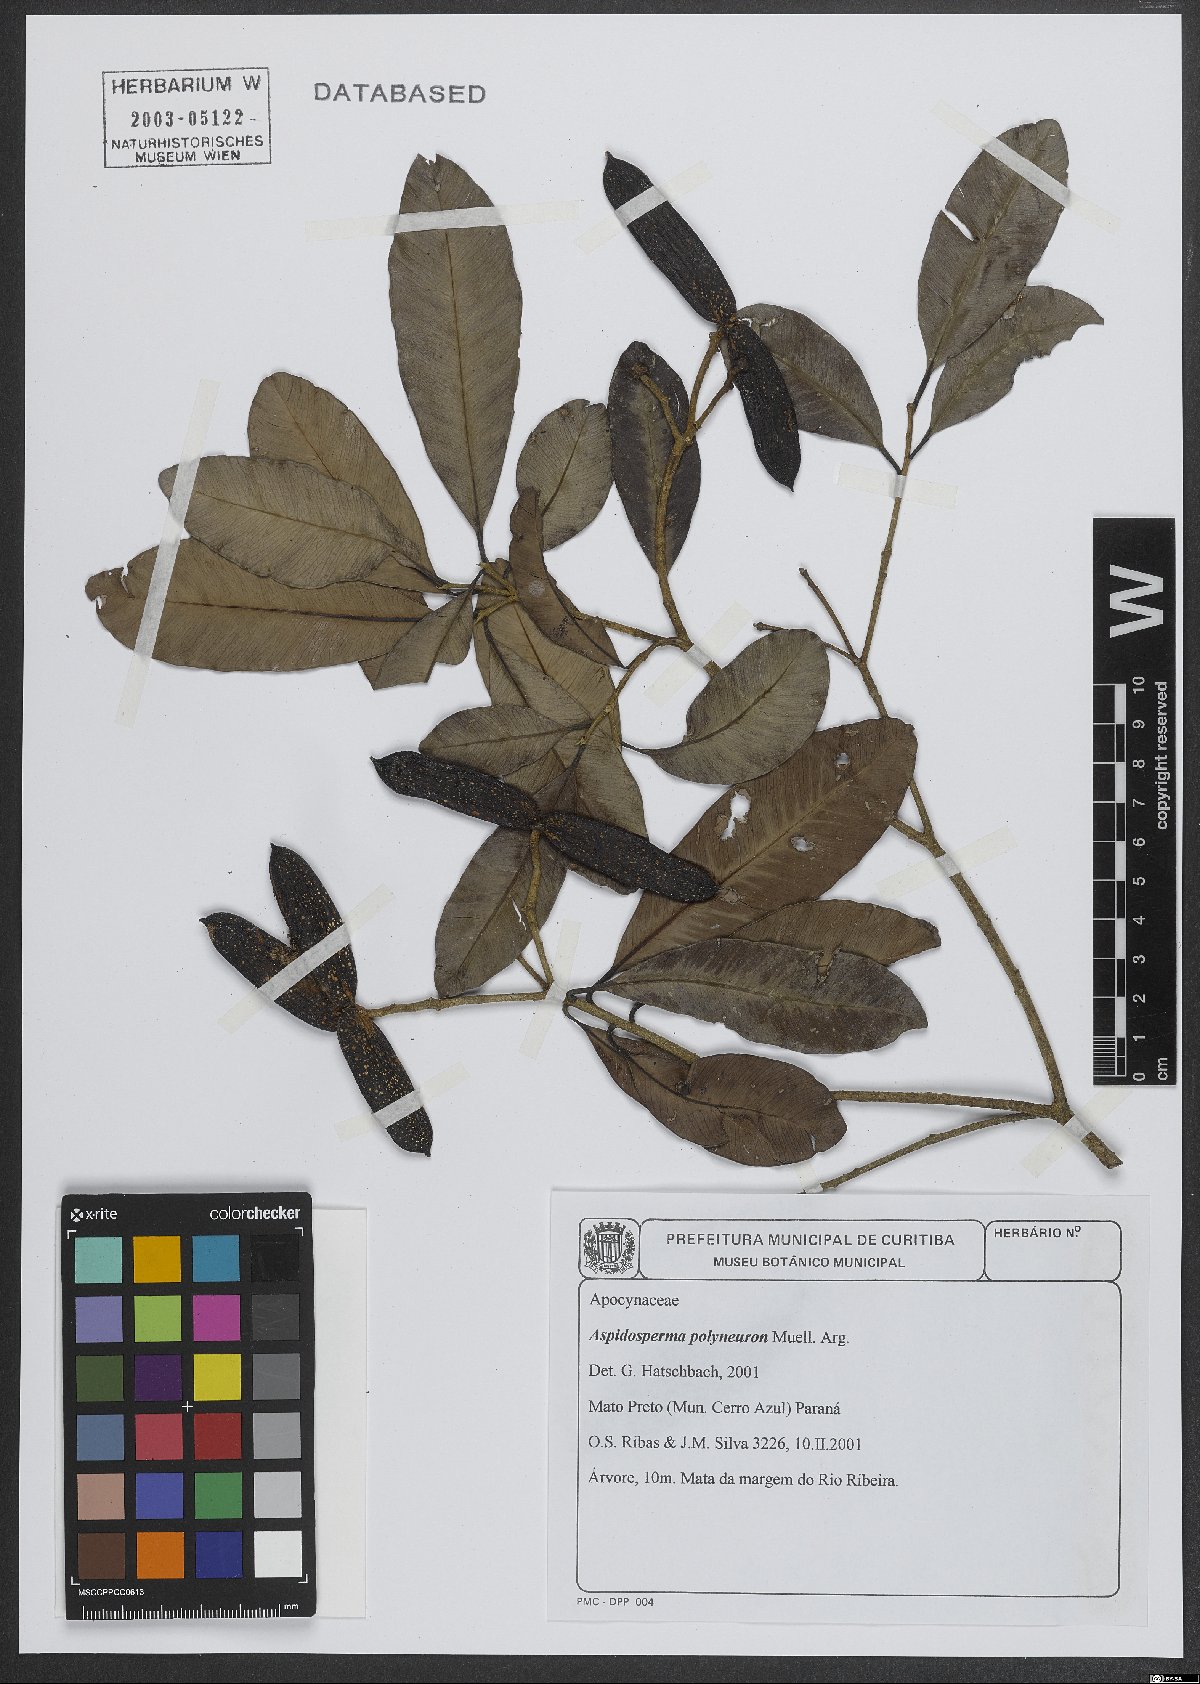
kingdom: Plantae
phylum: Tracheophyta
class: Magnoliopsida
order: Gentianales
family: Apocynaceae
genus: Aspidosperma
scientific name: Aspidosperma polyneuron
